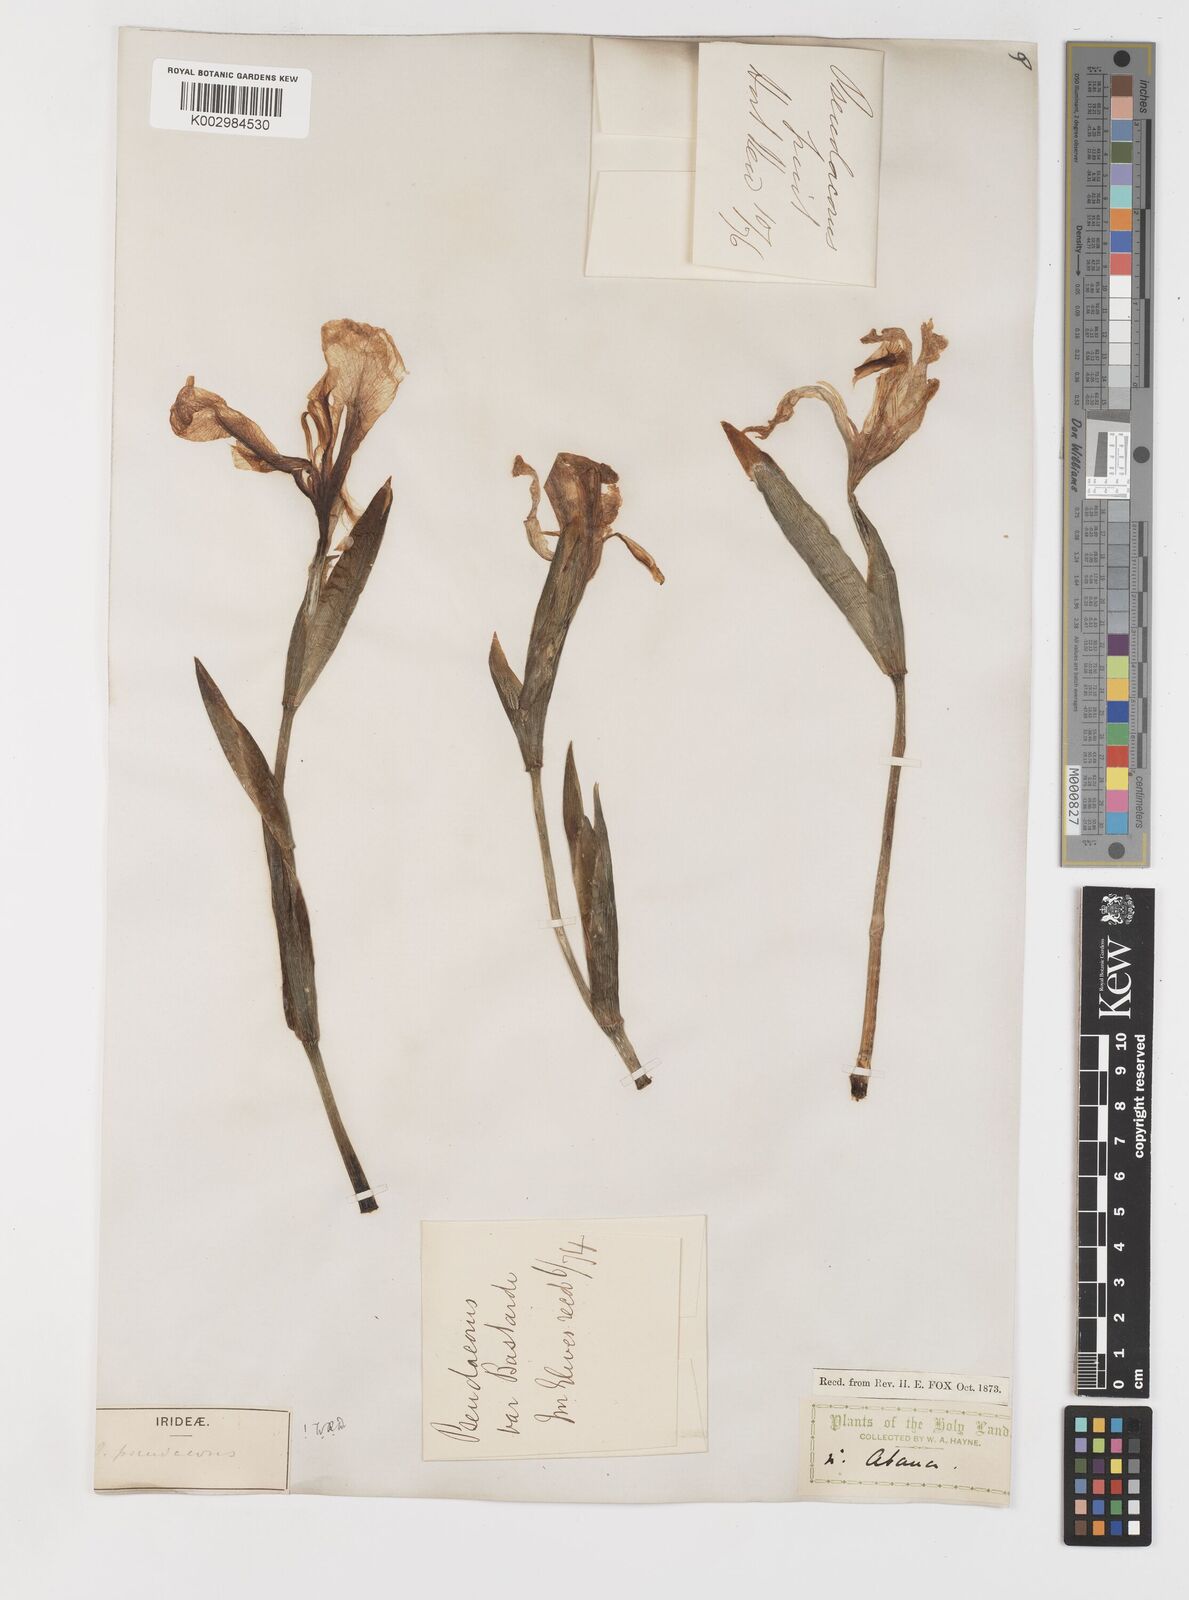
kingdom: Plantae
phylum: Tracheophyta
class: Liliopsida
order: Asparagales
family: Iridaceae
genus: Iris
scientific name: Iris pseudacorus
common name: Yellow flag
